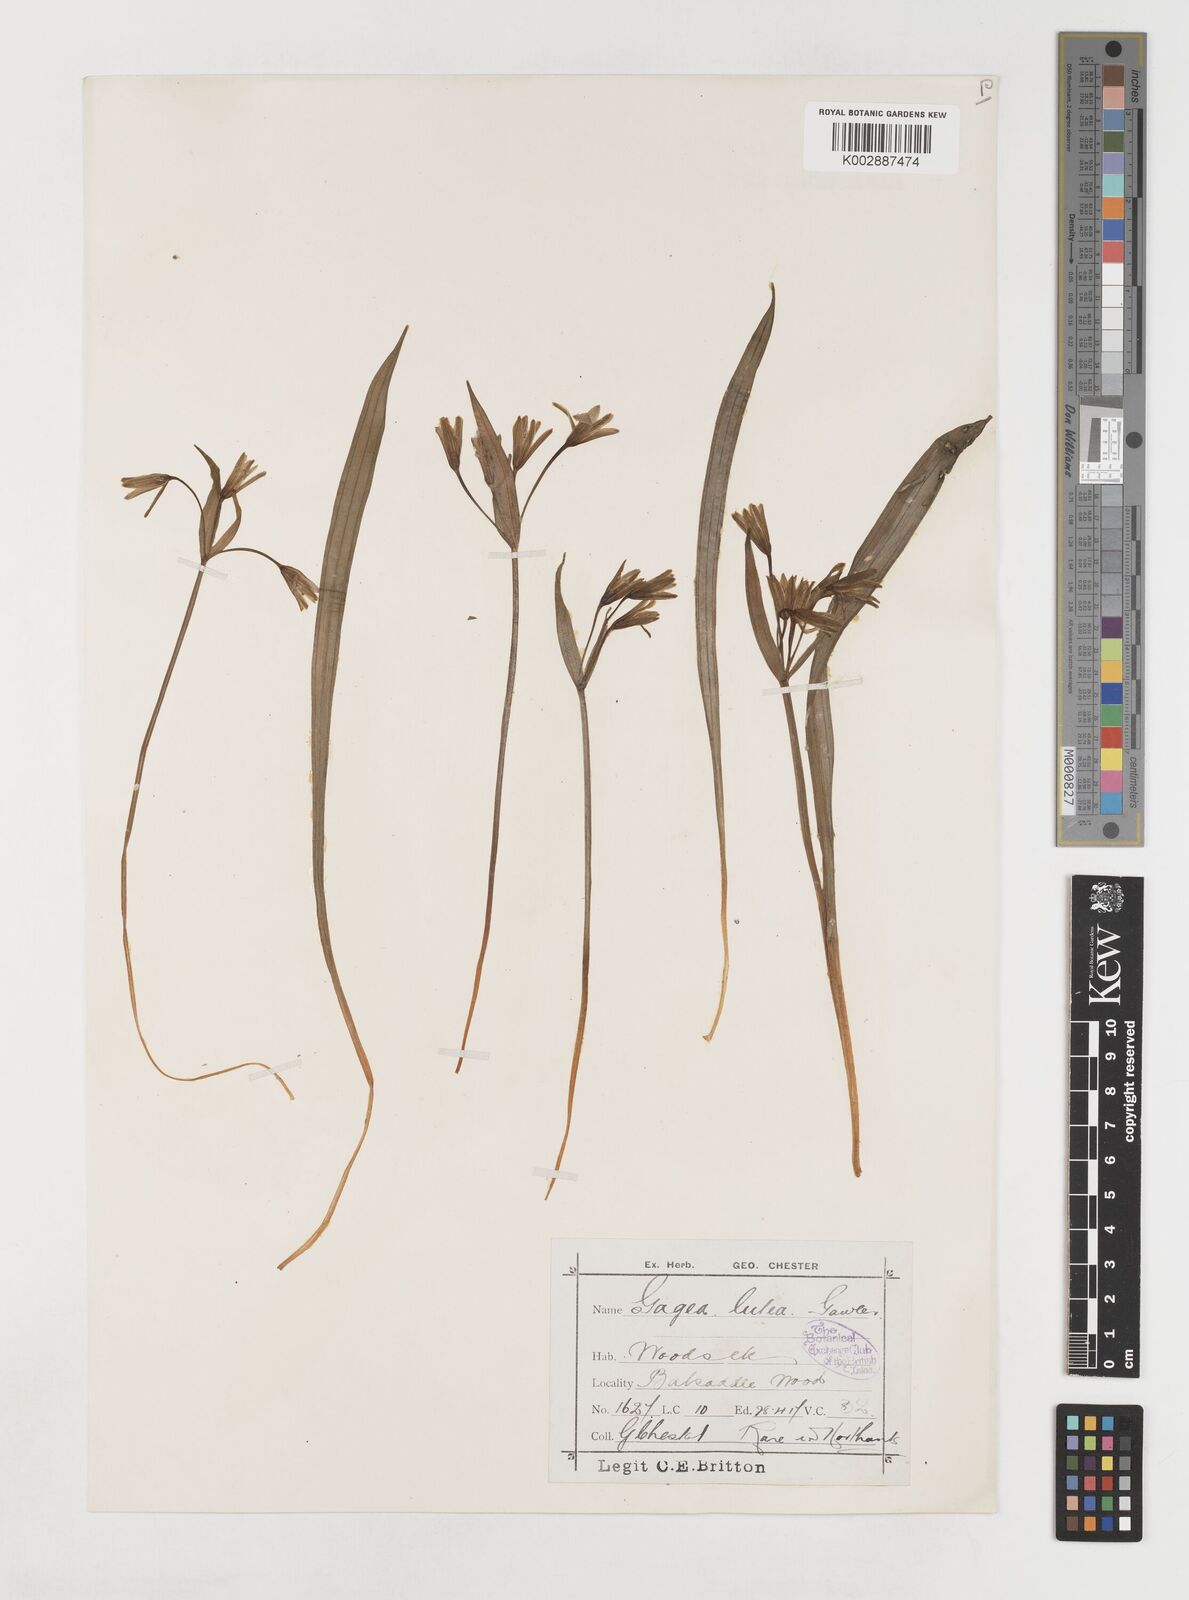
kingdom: Plantae
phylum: Tracheophyta
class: Liliopsida
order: Liliales
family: Liliaceae
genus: Gagea
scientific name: Gagea lutea
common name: Yellow star-of-bethlehem
